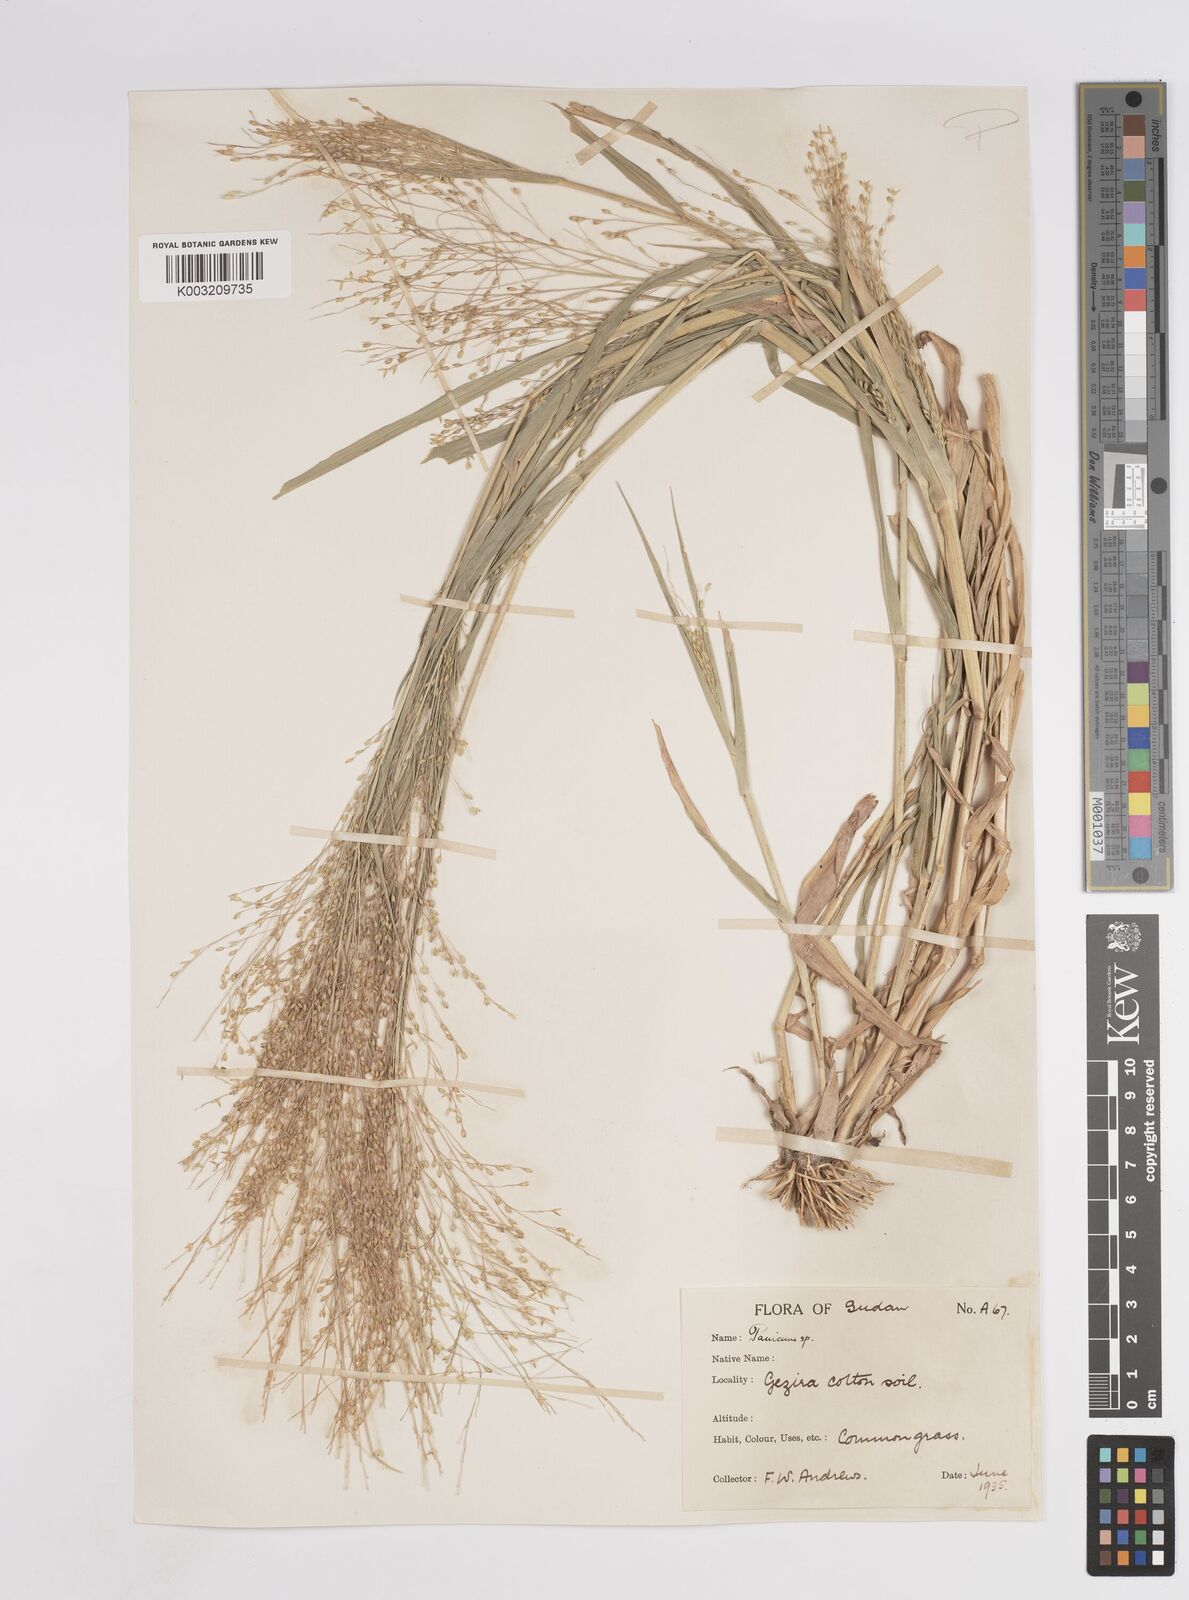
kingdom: Plantae
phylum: Tracheophyta
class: Liliopsida
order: Poales
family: Poaceae
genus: Panicum
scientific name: Panicum
